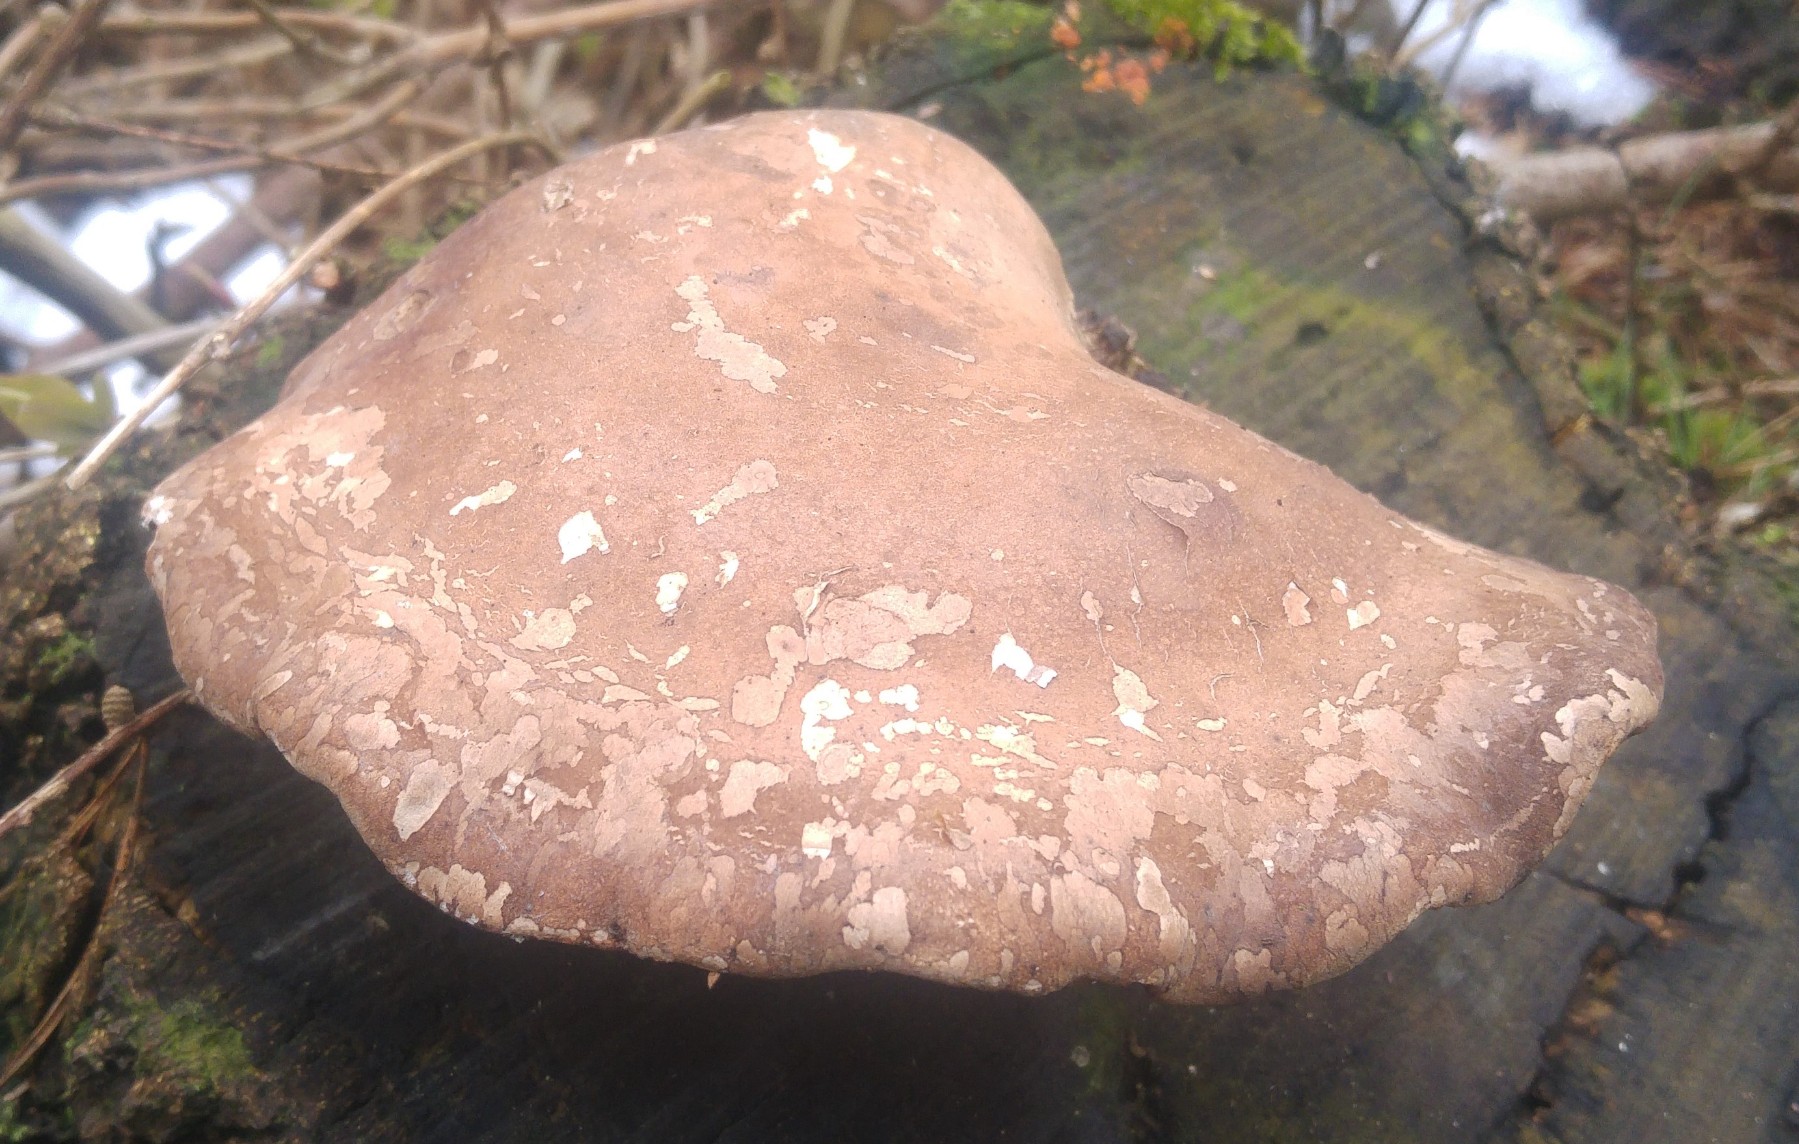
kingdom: Fungi
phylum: Basidiomycota
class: Agaricomycetes
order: Polyporales
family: Fomitopsidaceae
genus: Fomitopsis
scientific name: Fomitopsis betulina
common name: birkeporesvamp
